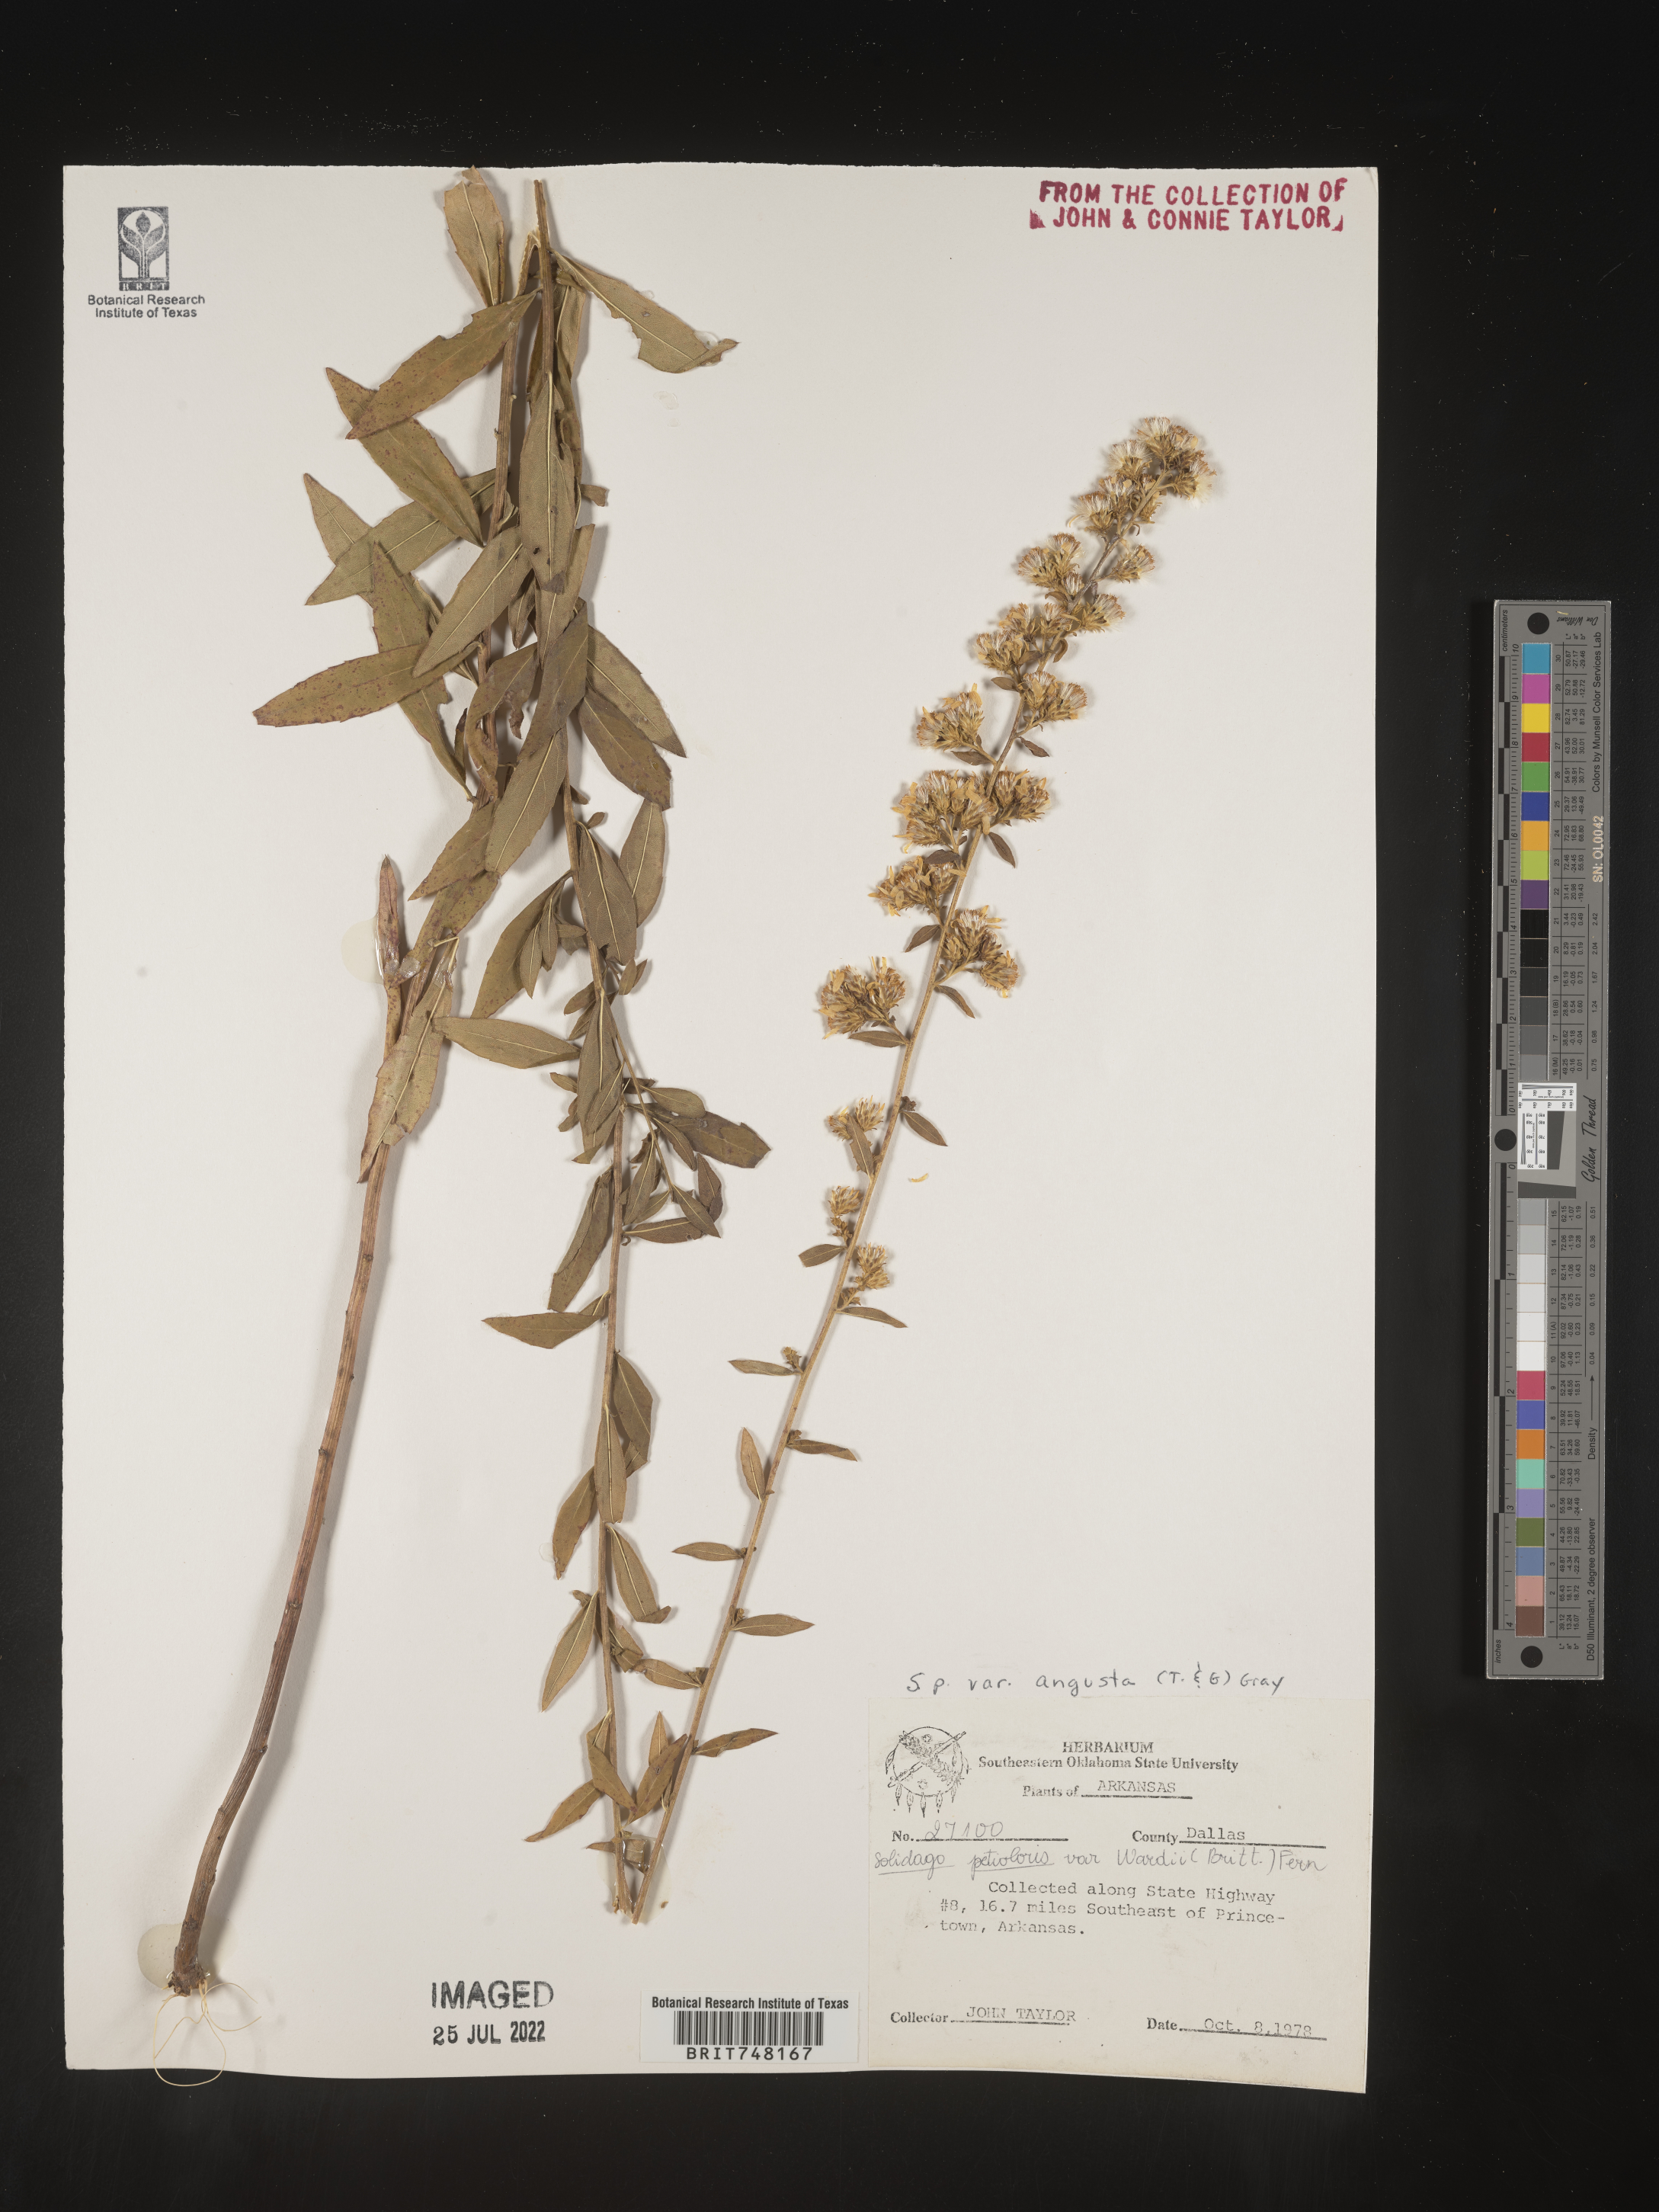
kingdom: Plantae
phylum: Tracheophyta
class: Magnoliopsida
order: Asterales
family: Asteraceae
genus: Solidago
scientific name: Solidago petiolaris
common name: Downy ragged goldenrod
